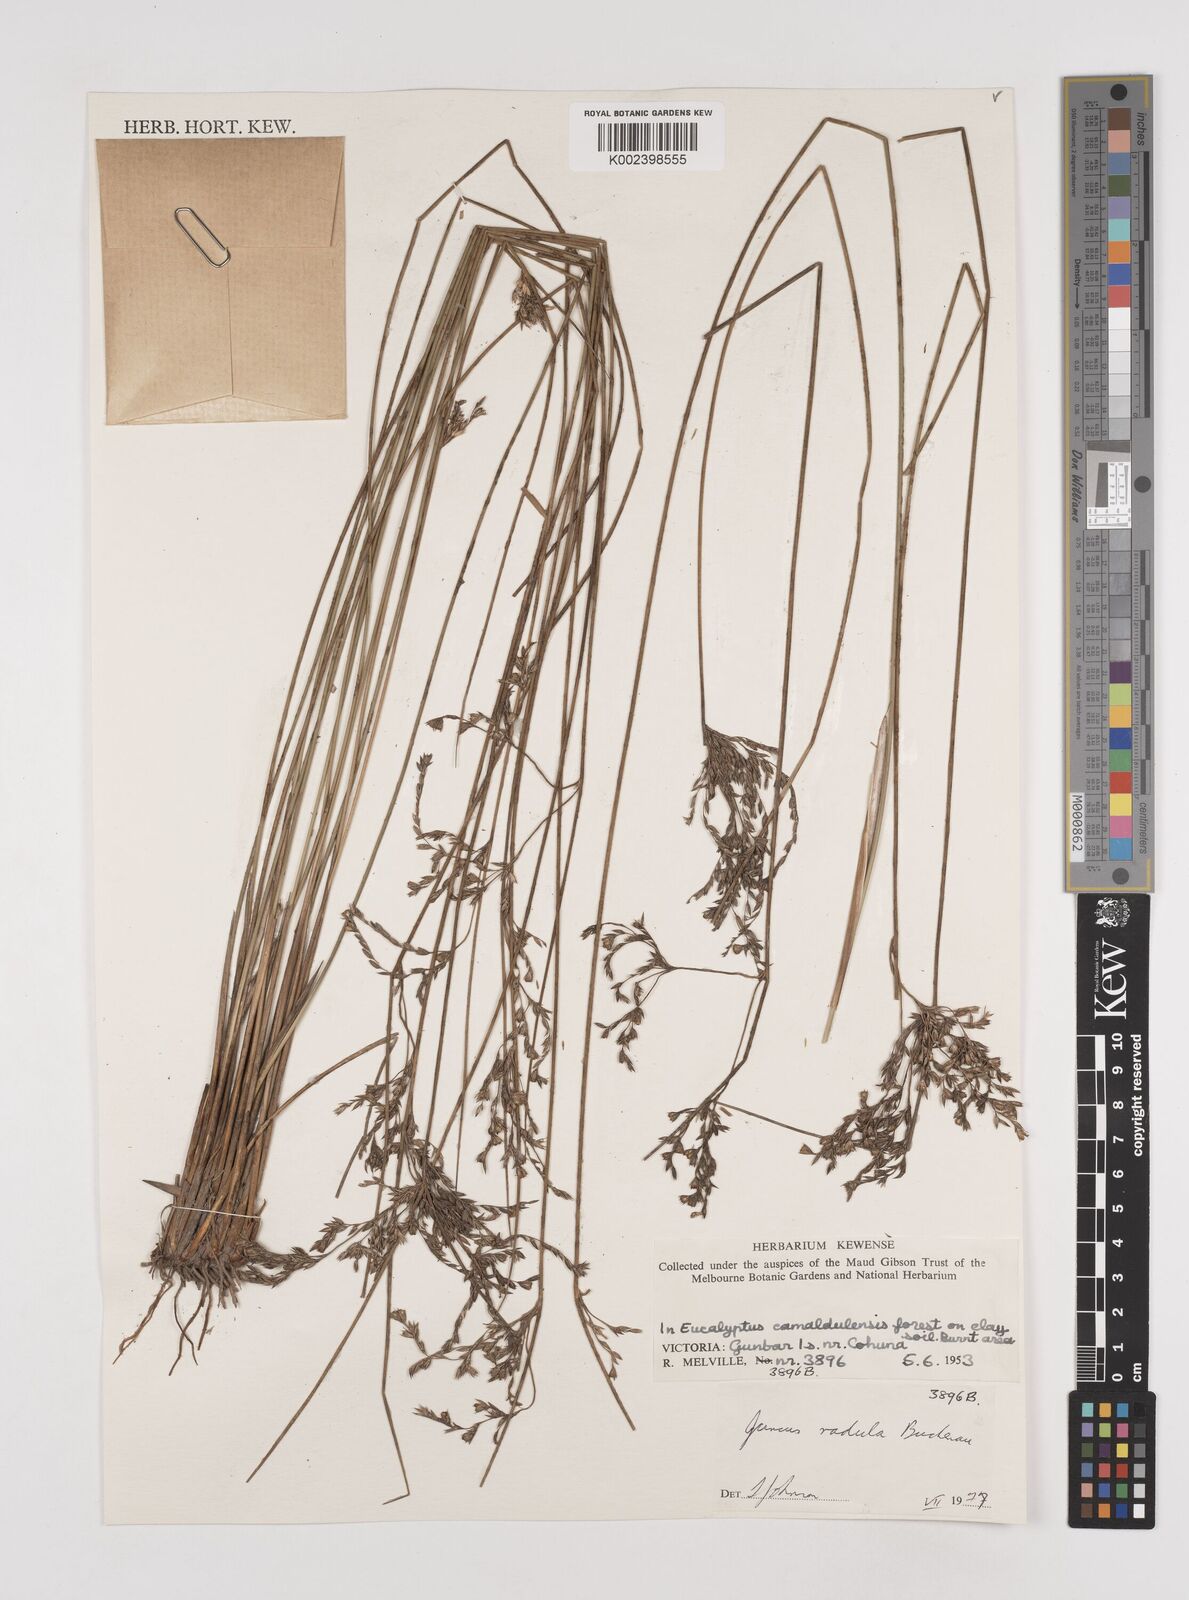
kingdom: Plantae
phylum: Tracheophyta
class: Liliopsida
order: Poales
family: Juncaceae
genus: Juncus
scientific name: Juncus radula
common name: Hoary rush
